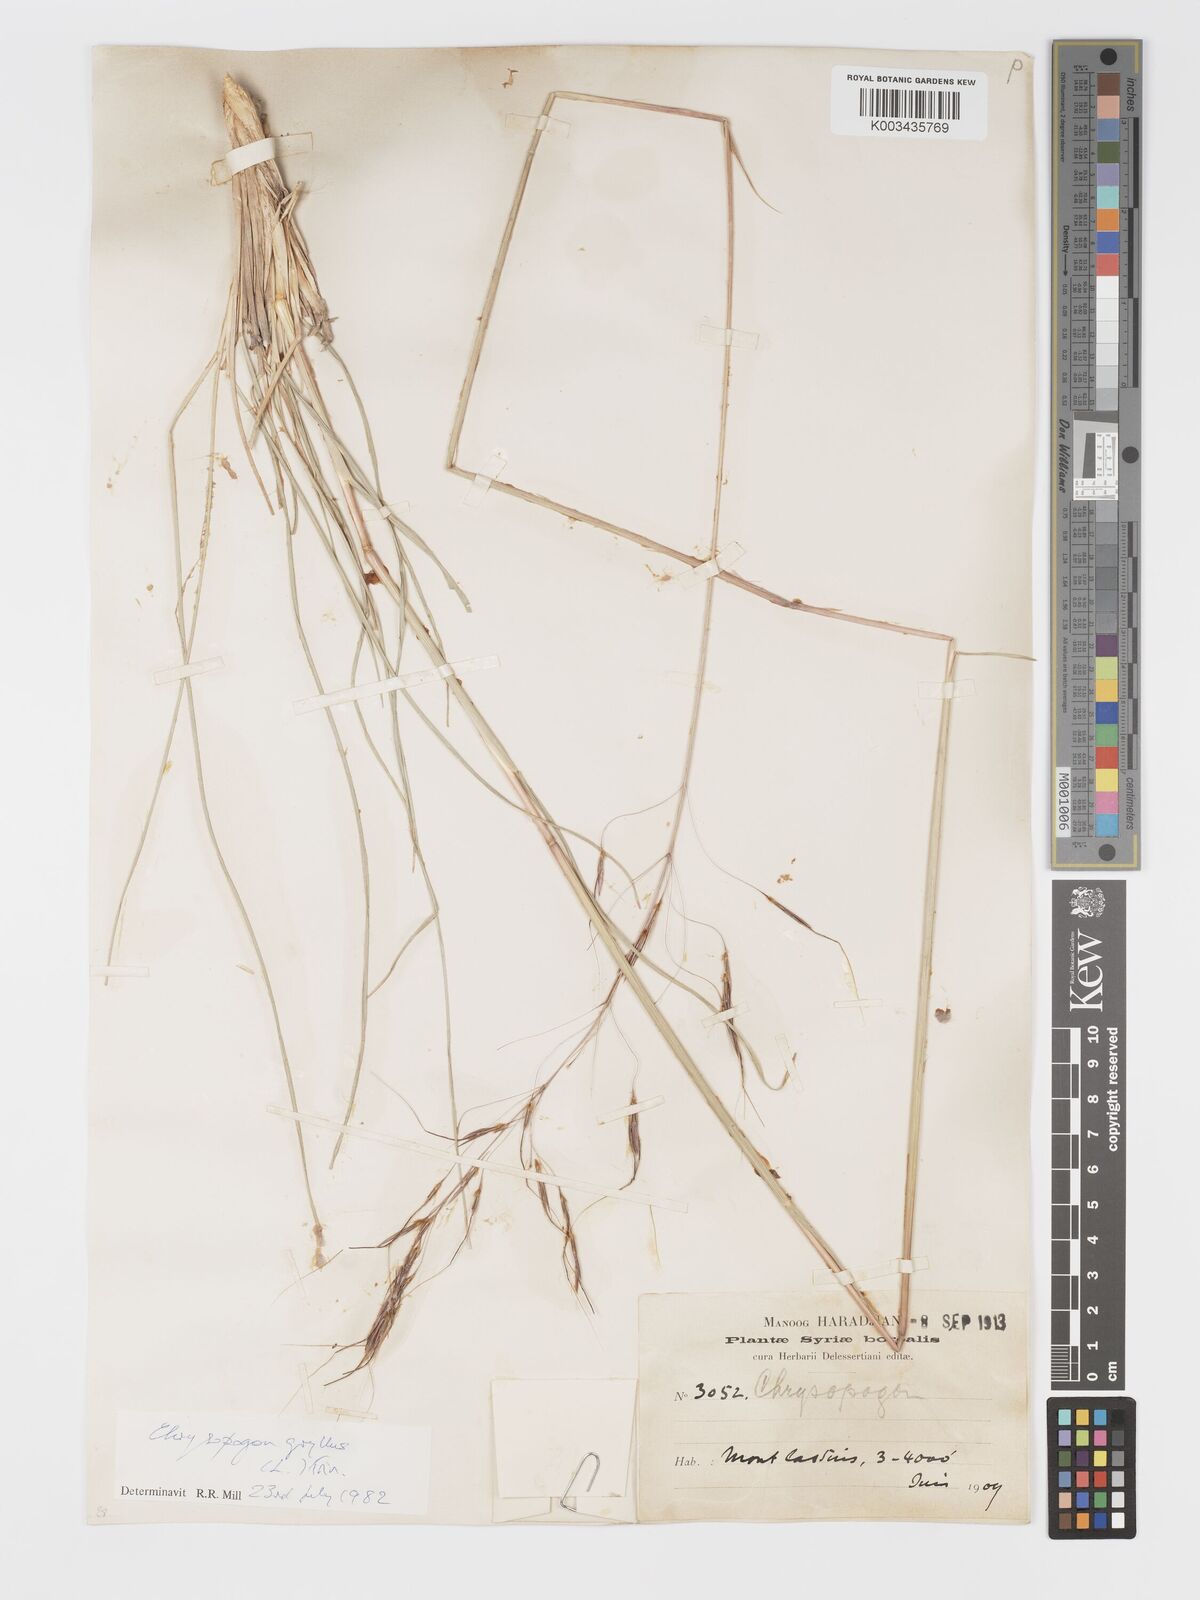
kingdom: Plantae
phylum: Tracheophyta
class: Liliopsida
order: Poales
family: Poaceae
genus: Chrysopogon
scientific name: Chrysopogon gryllus
